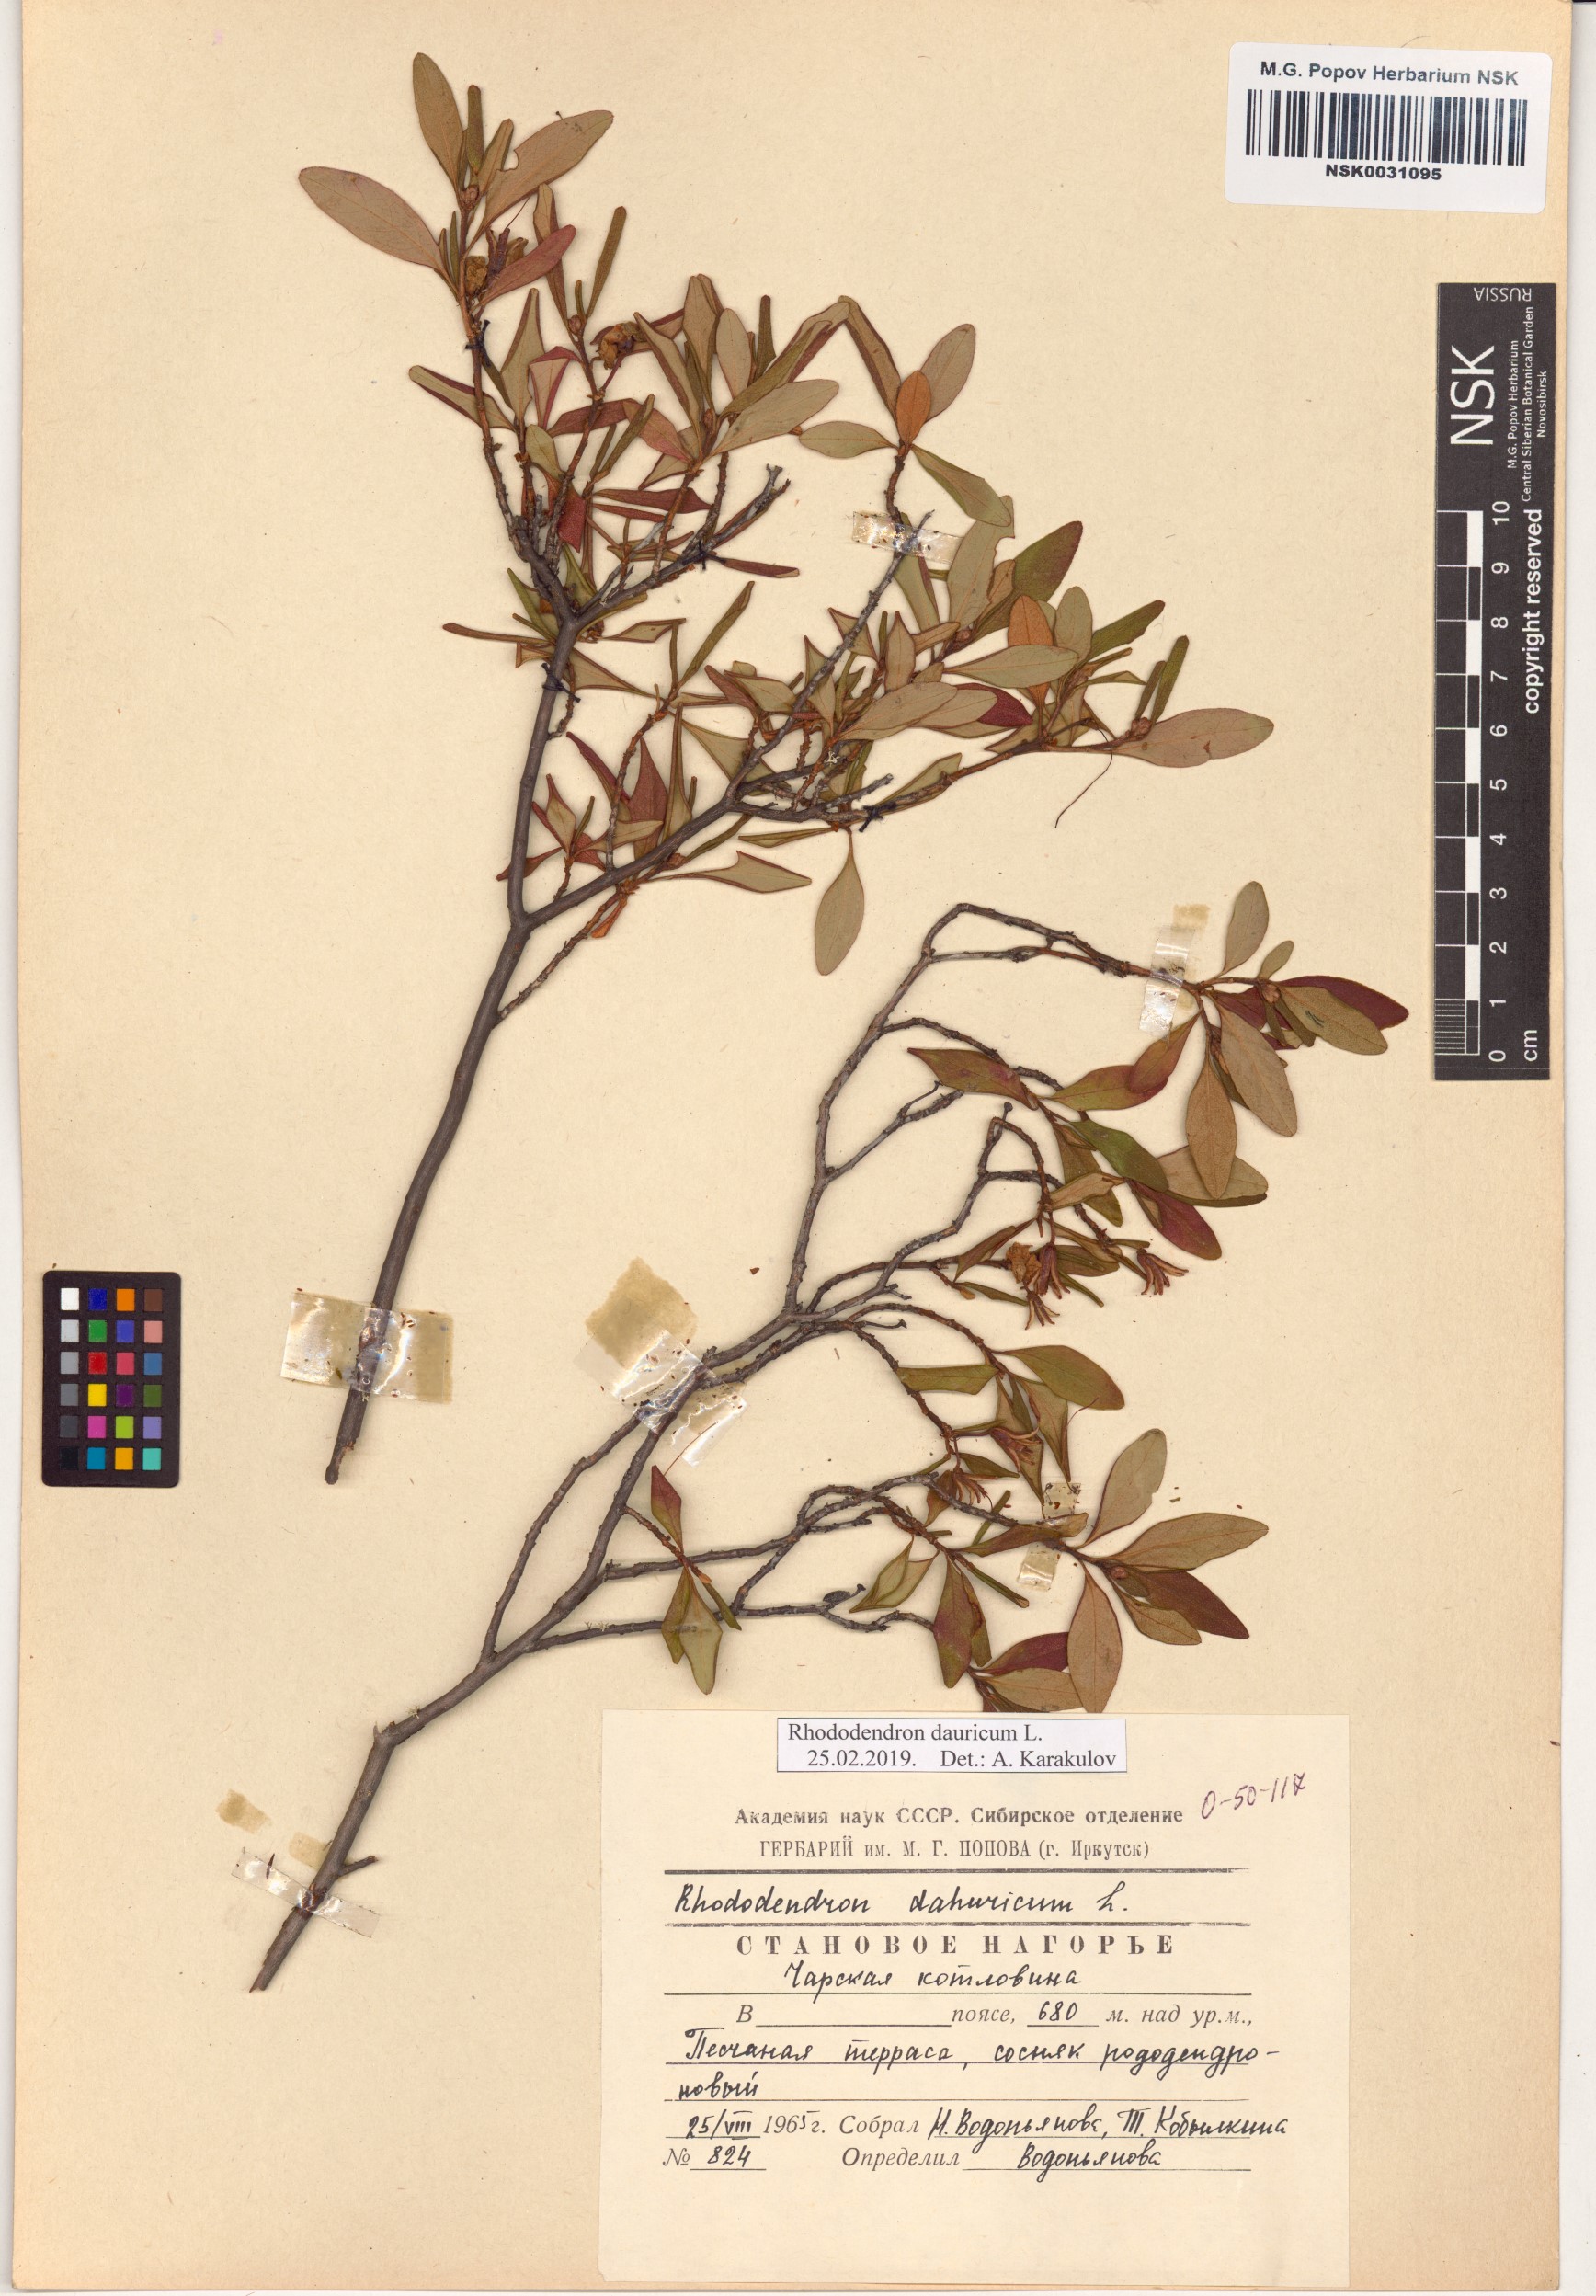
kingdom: Plantae
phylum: Tracheophyta
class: Magnoliopsida
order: Ericales
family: Ericaceae
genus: Rhododendron
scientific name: Rhododendron dauricum
